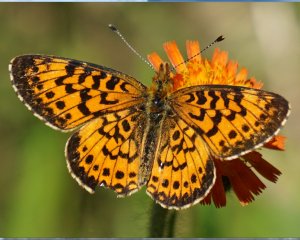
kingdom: Animalia
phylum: Arthropoda
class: Insecta
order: Lepidoptera
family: Nymphalidae
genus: Boloria
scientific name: Boloria selene
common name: Silver-bordered Fritillary
